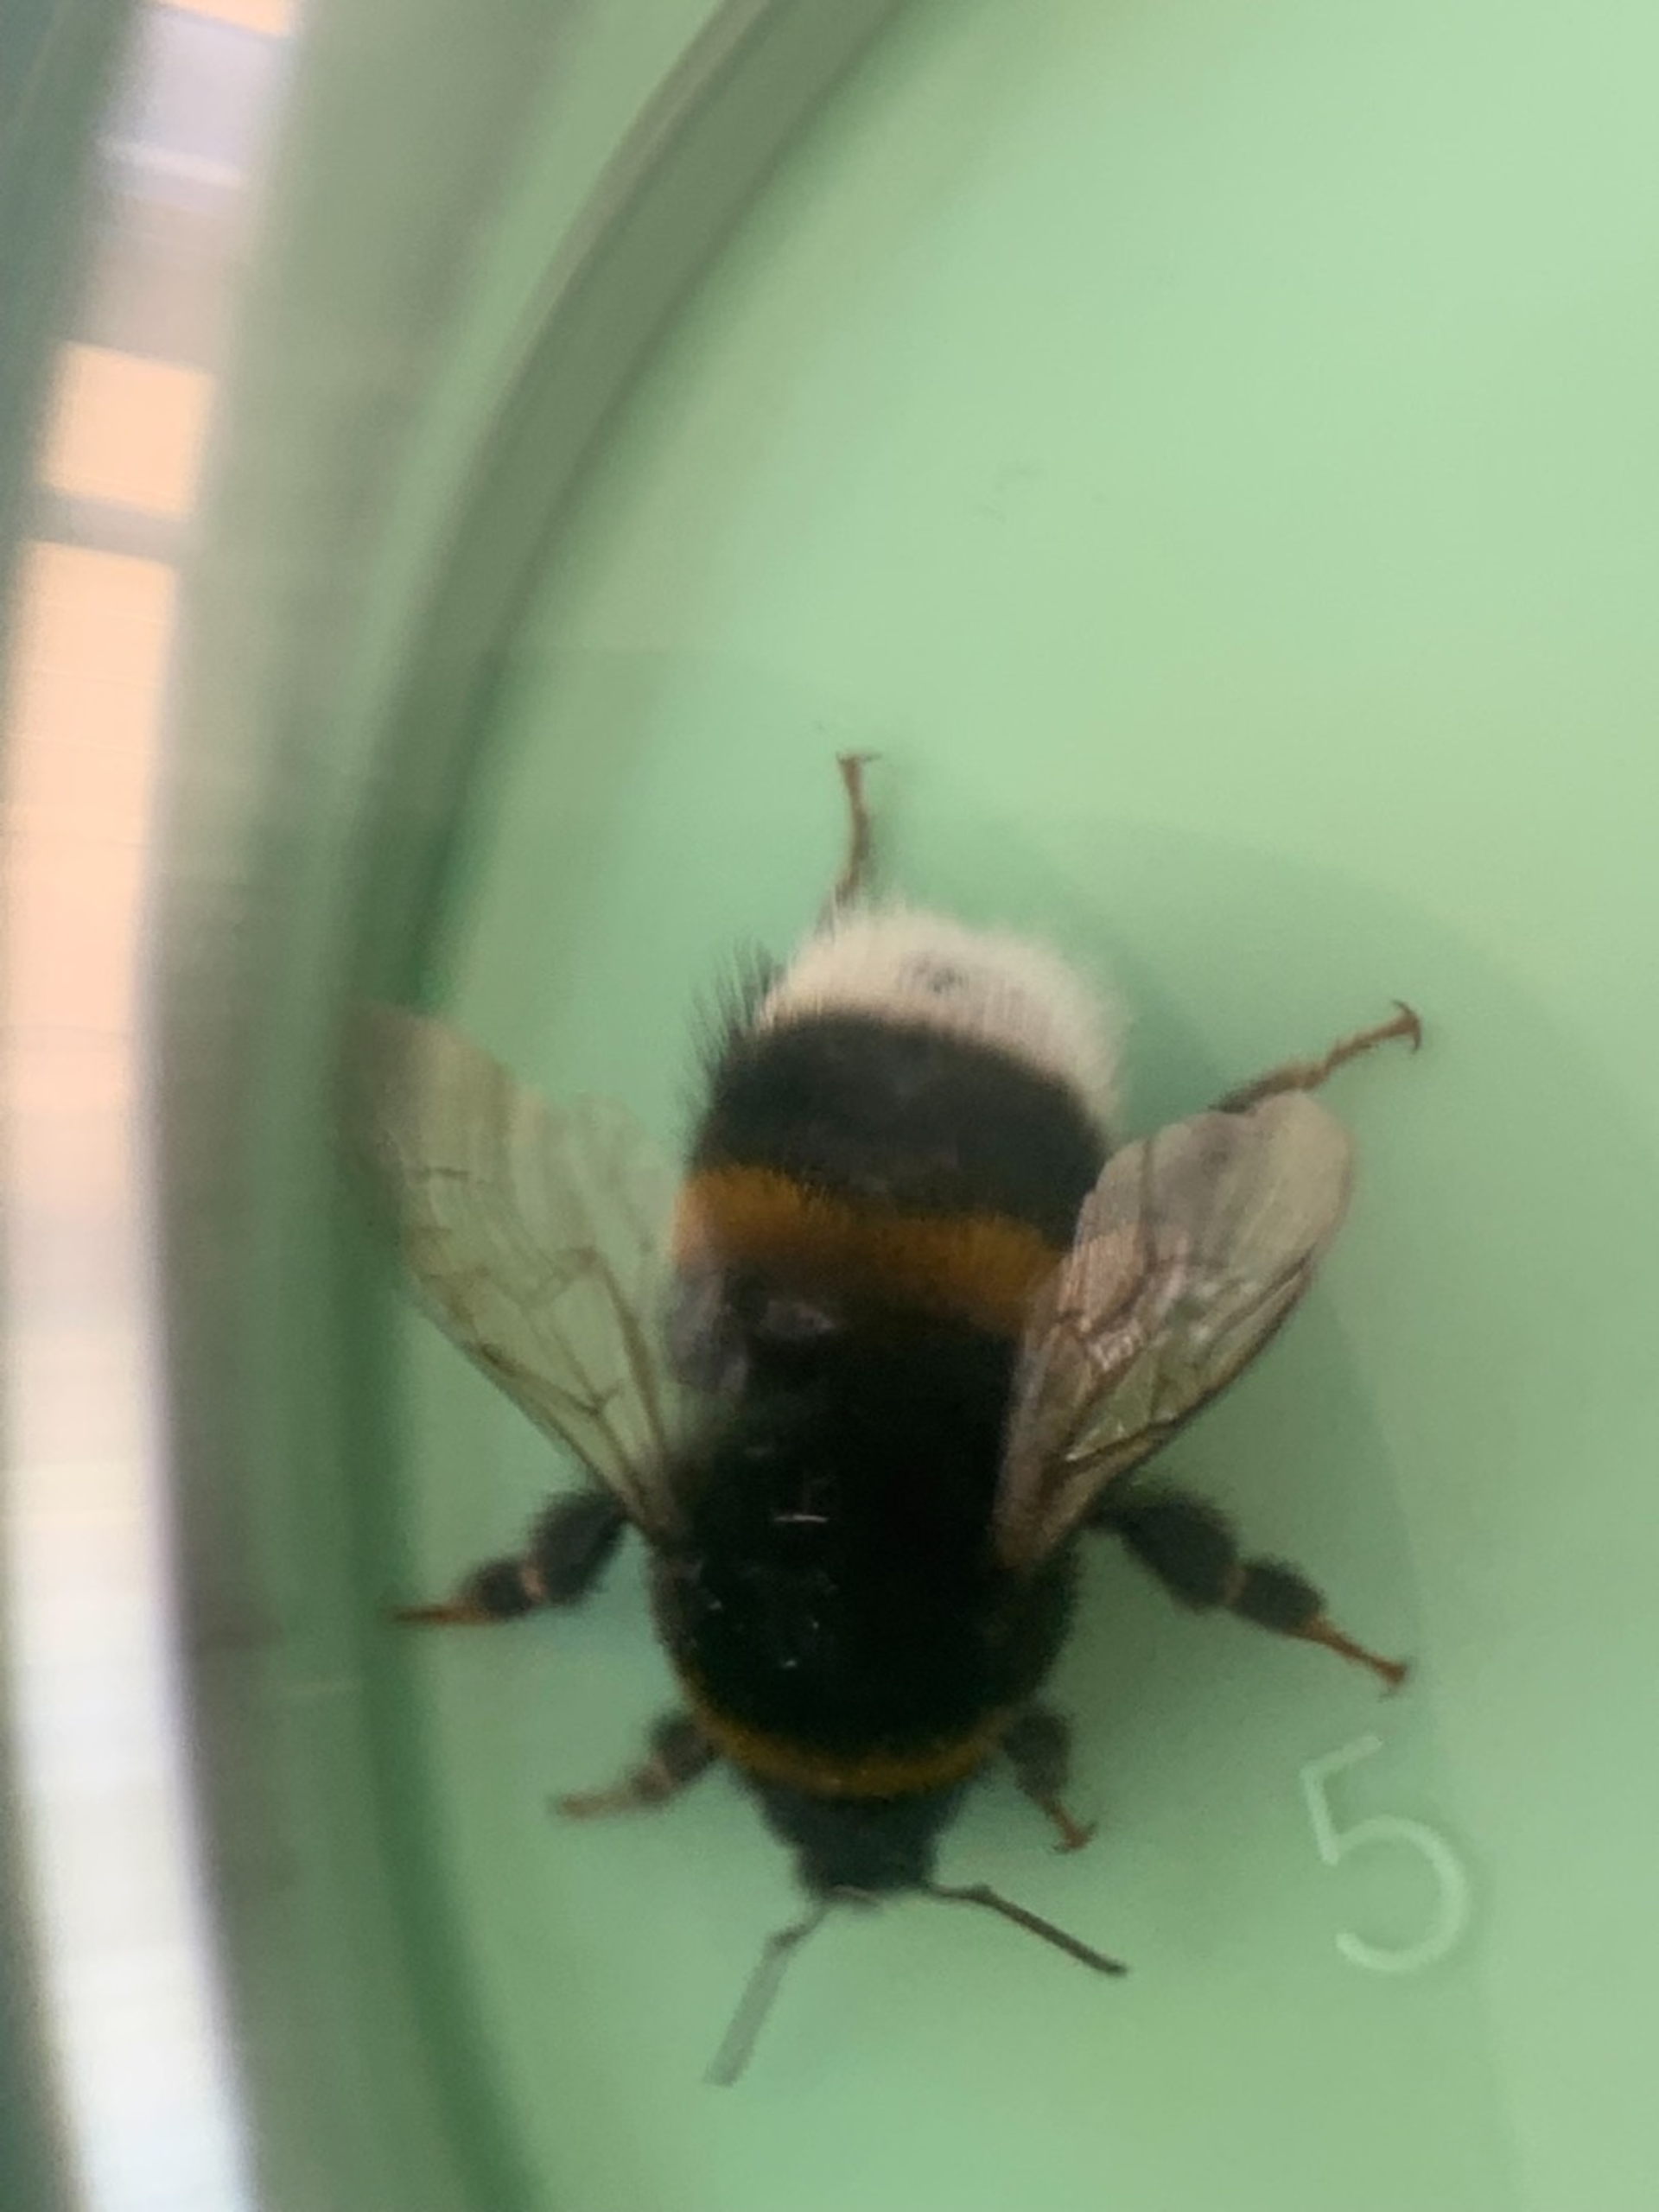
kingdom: Animalia
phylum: Arthropoda
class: Insecta
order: Hymenoptera
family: Apidae
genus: Bombus
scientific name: Bombus hortorum
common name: Havehumle
